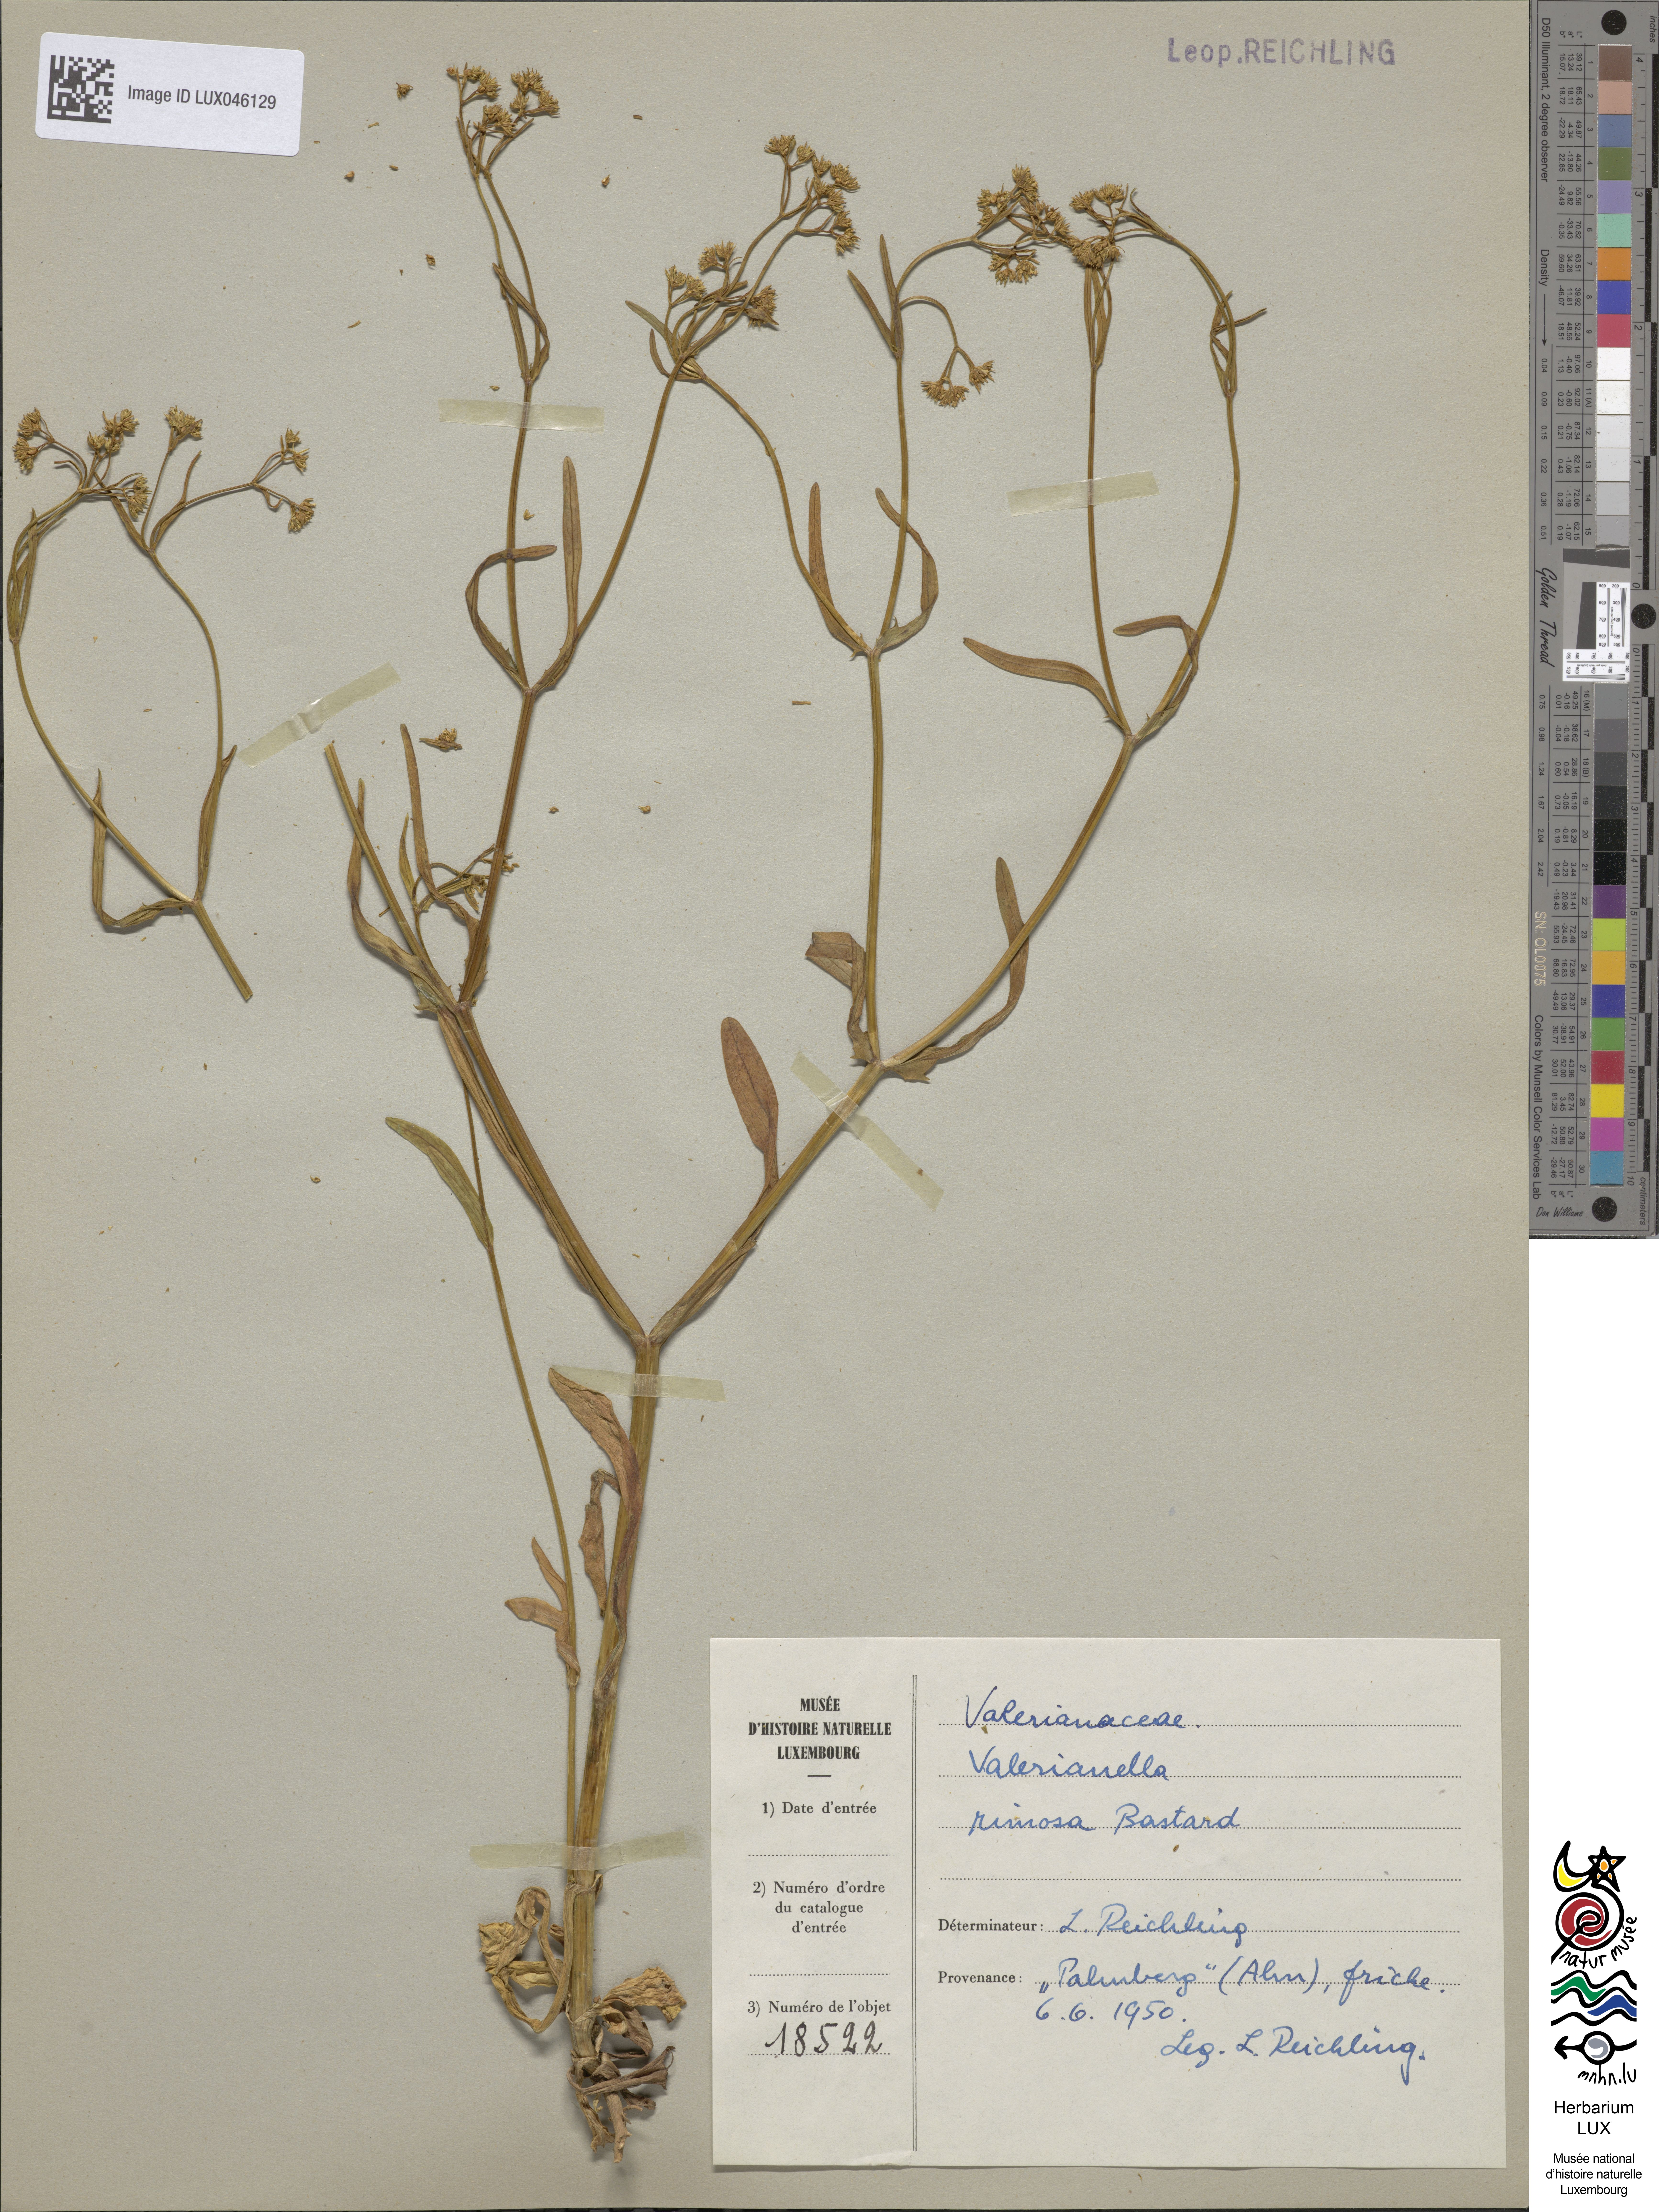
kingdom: Plantae
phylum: Tracheophyta
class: Magnoliopsida
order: Dipsacales
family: Caprifoliaceae
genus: Valerianella
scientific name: Valerianella rimosa
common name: Broad-fruited cornsalad
